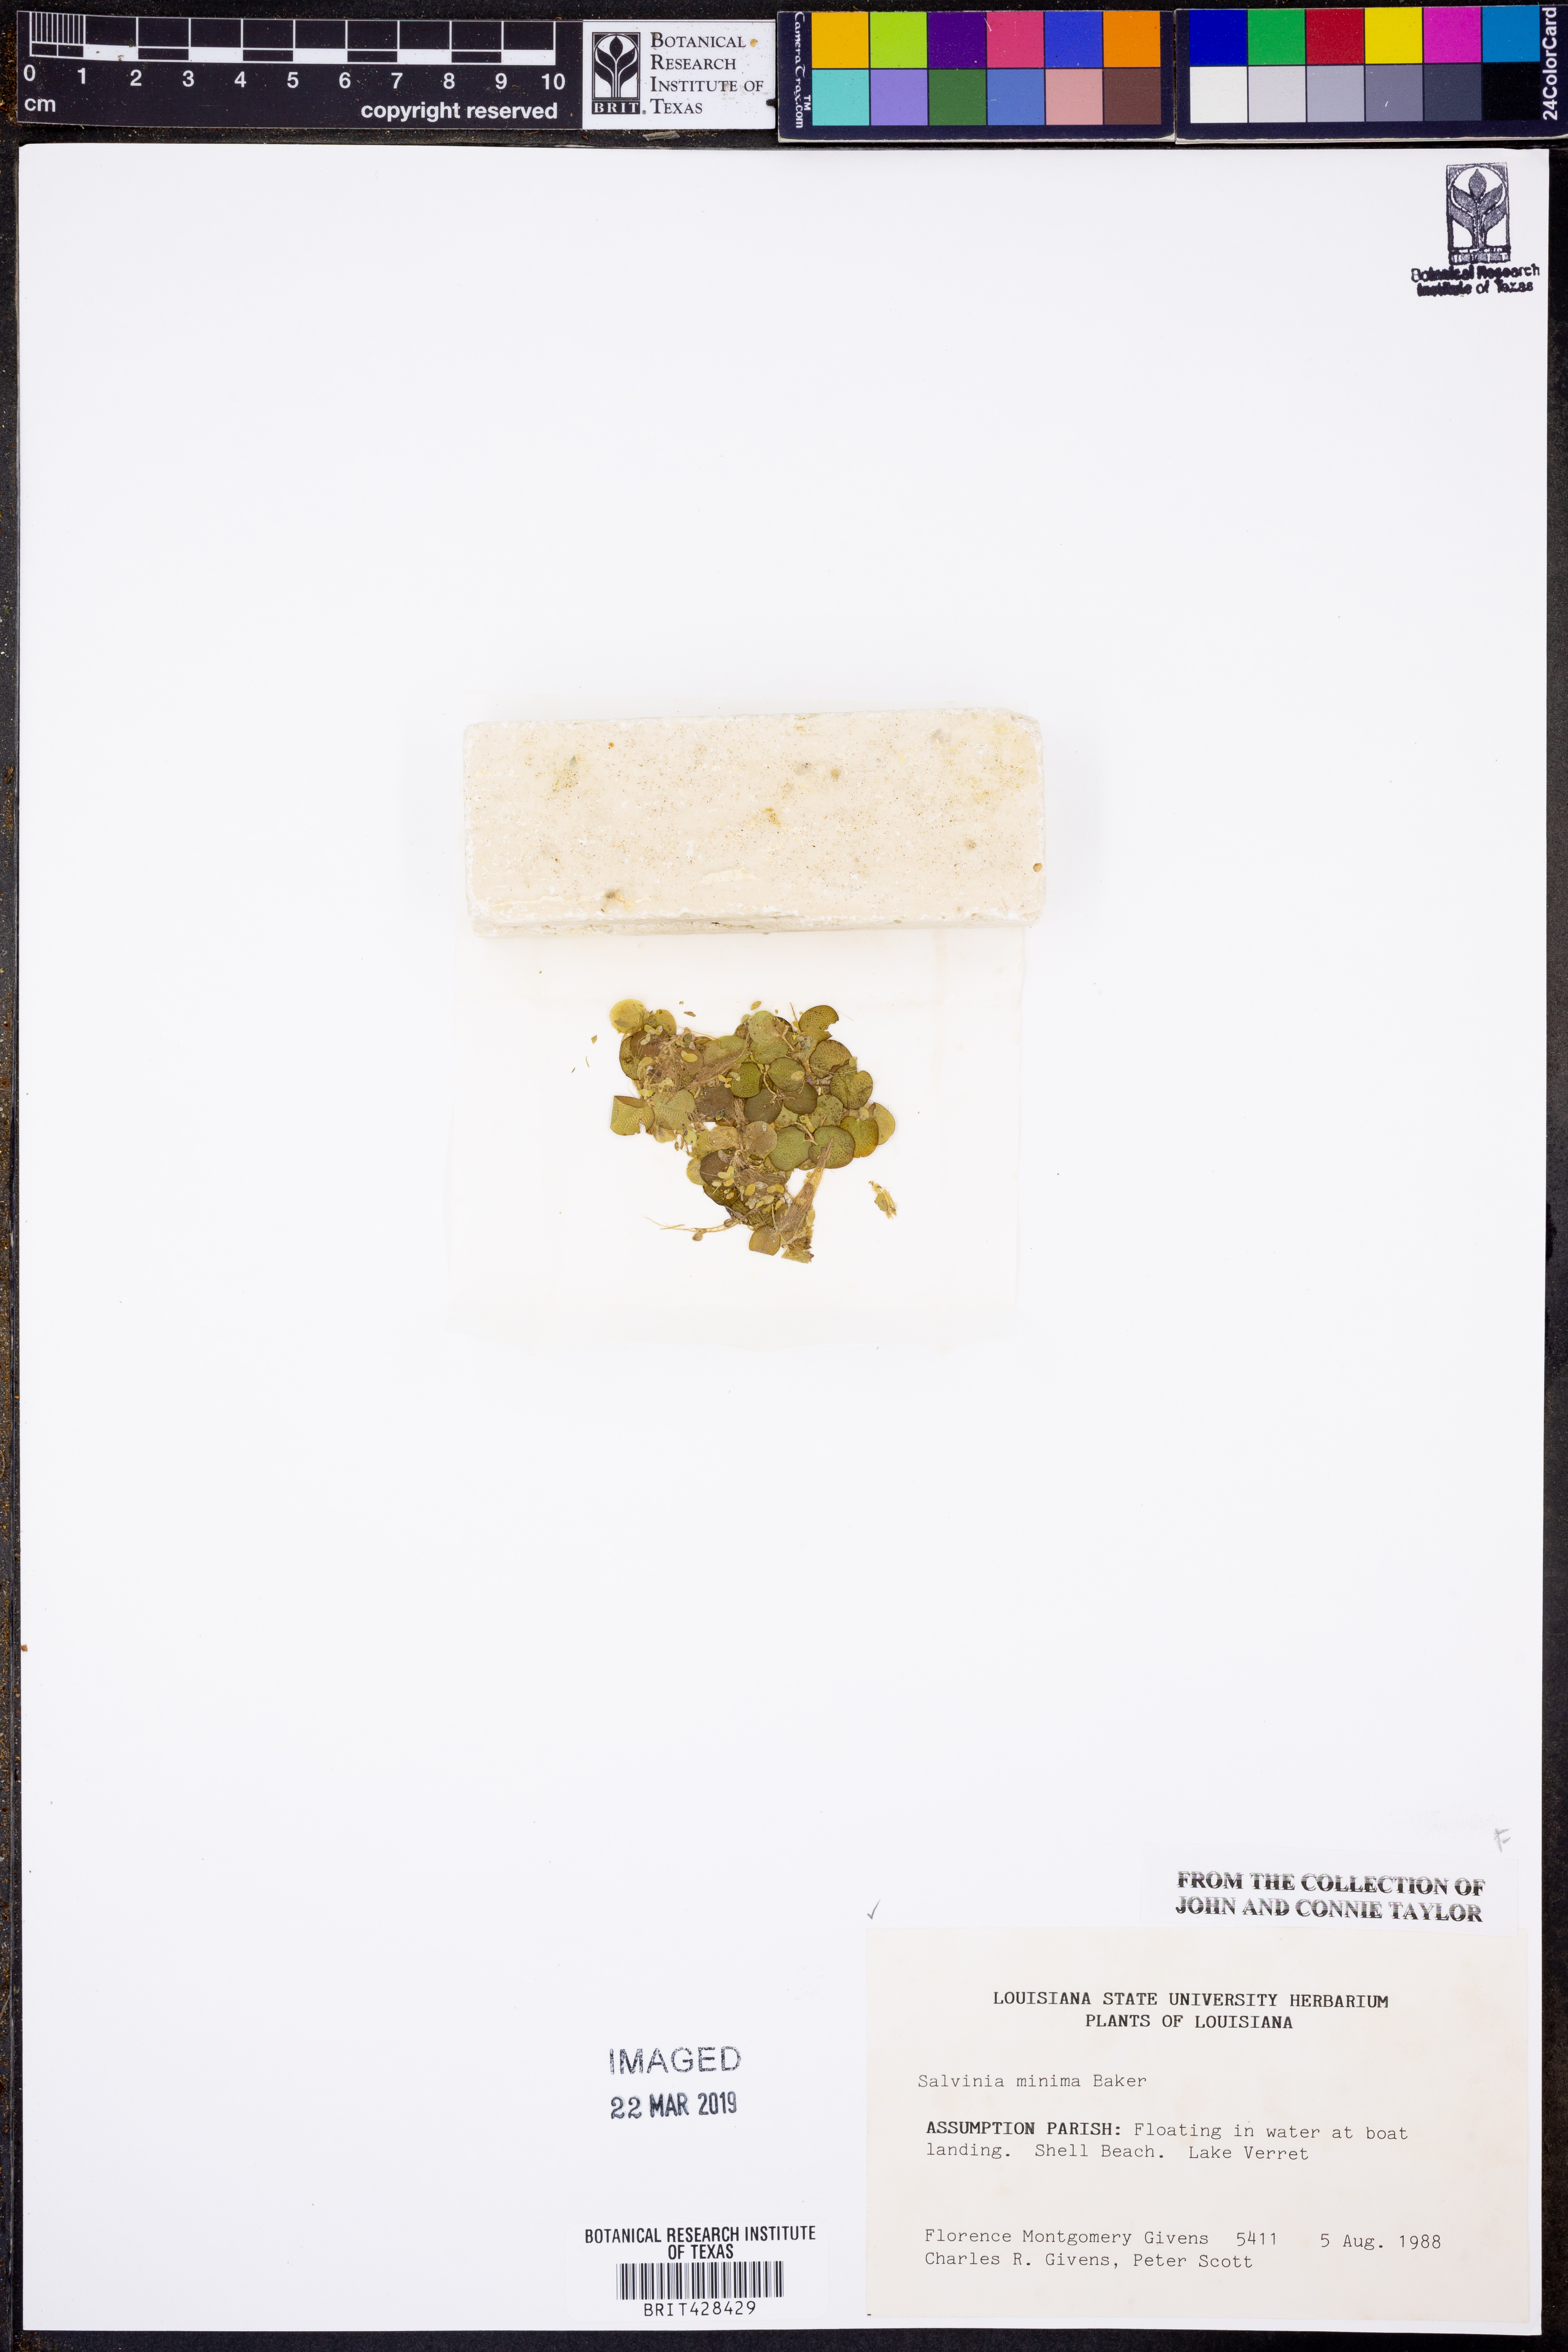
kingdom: Plantae
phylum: Tracheophyta
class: Polypodiopsida
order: Salviniales
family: Salviniaceae
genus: Salvinia
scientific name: Salvinia minima
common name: Water spangles
